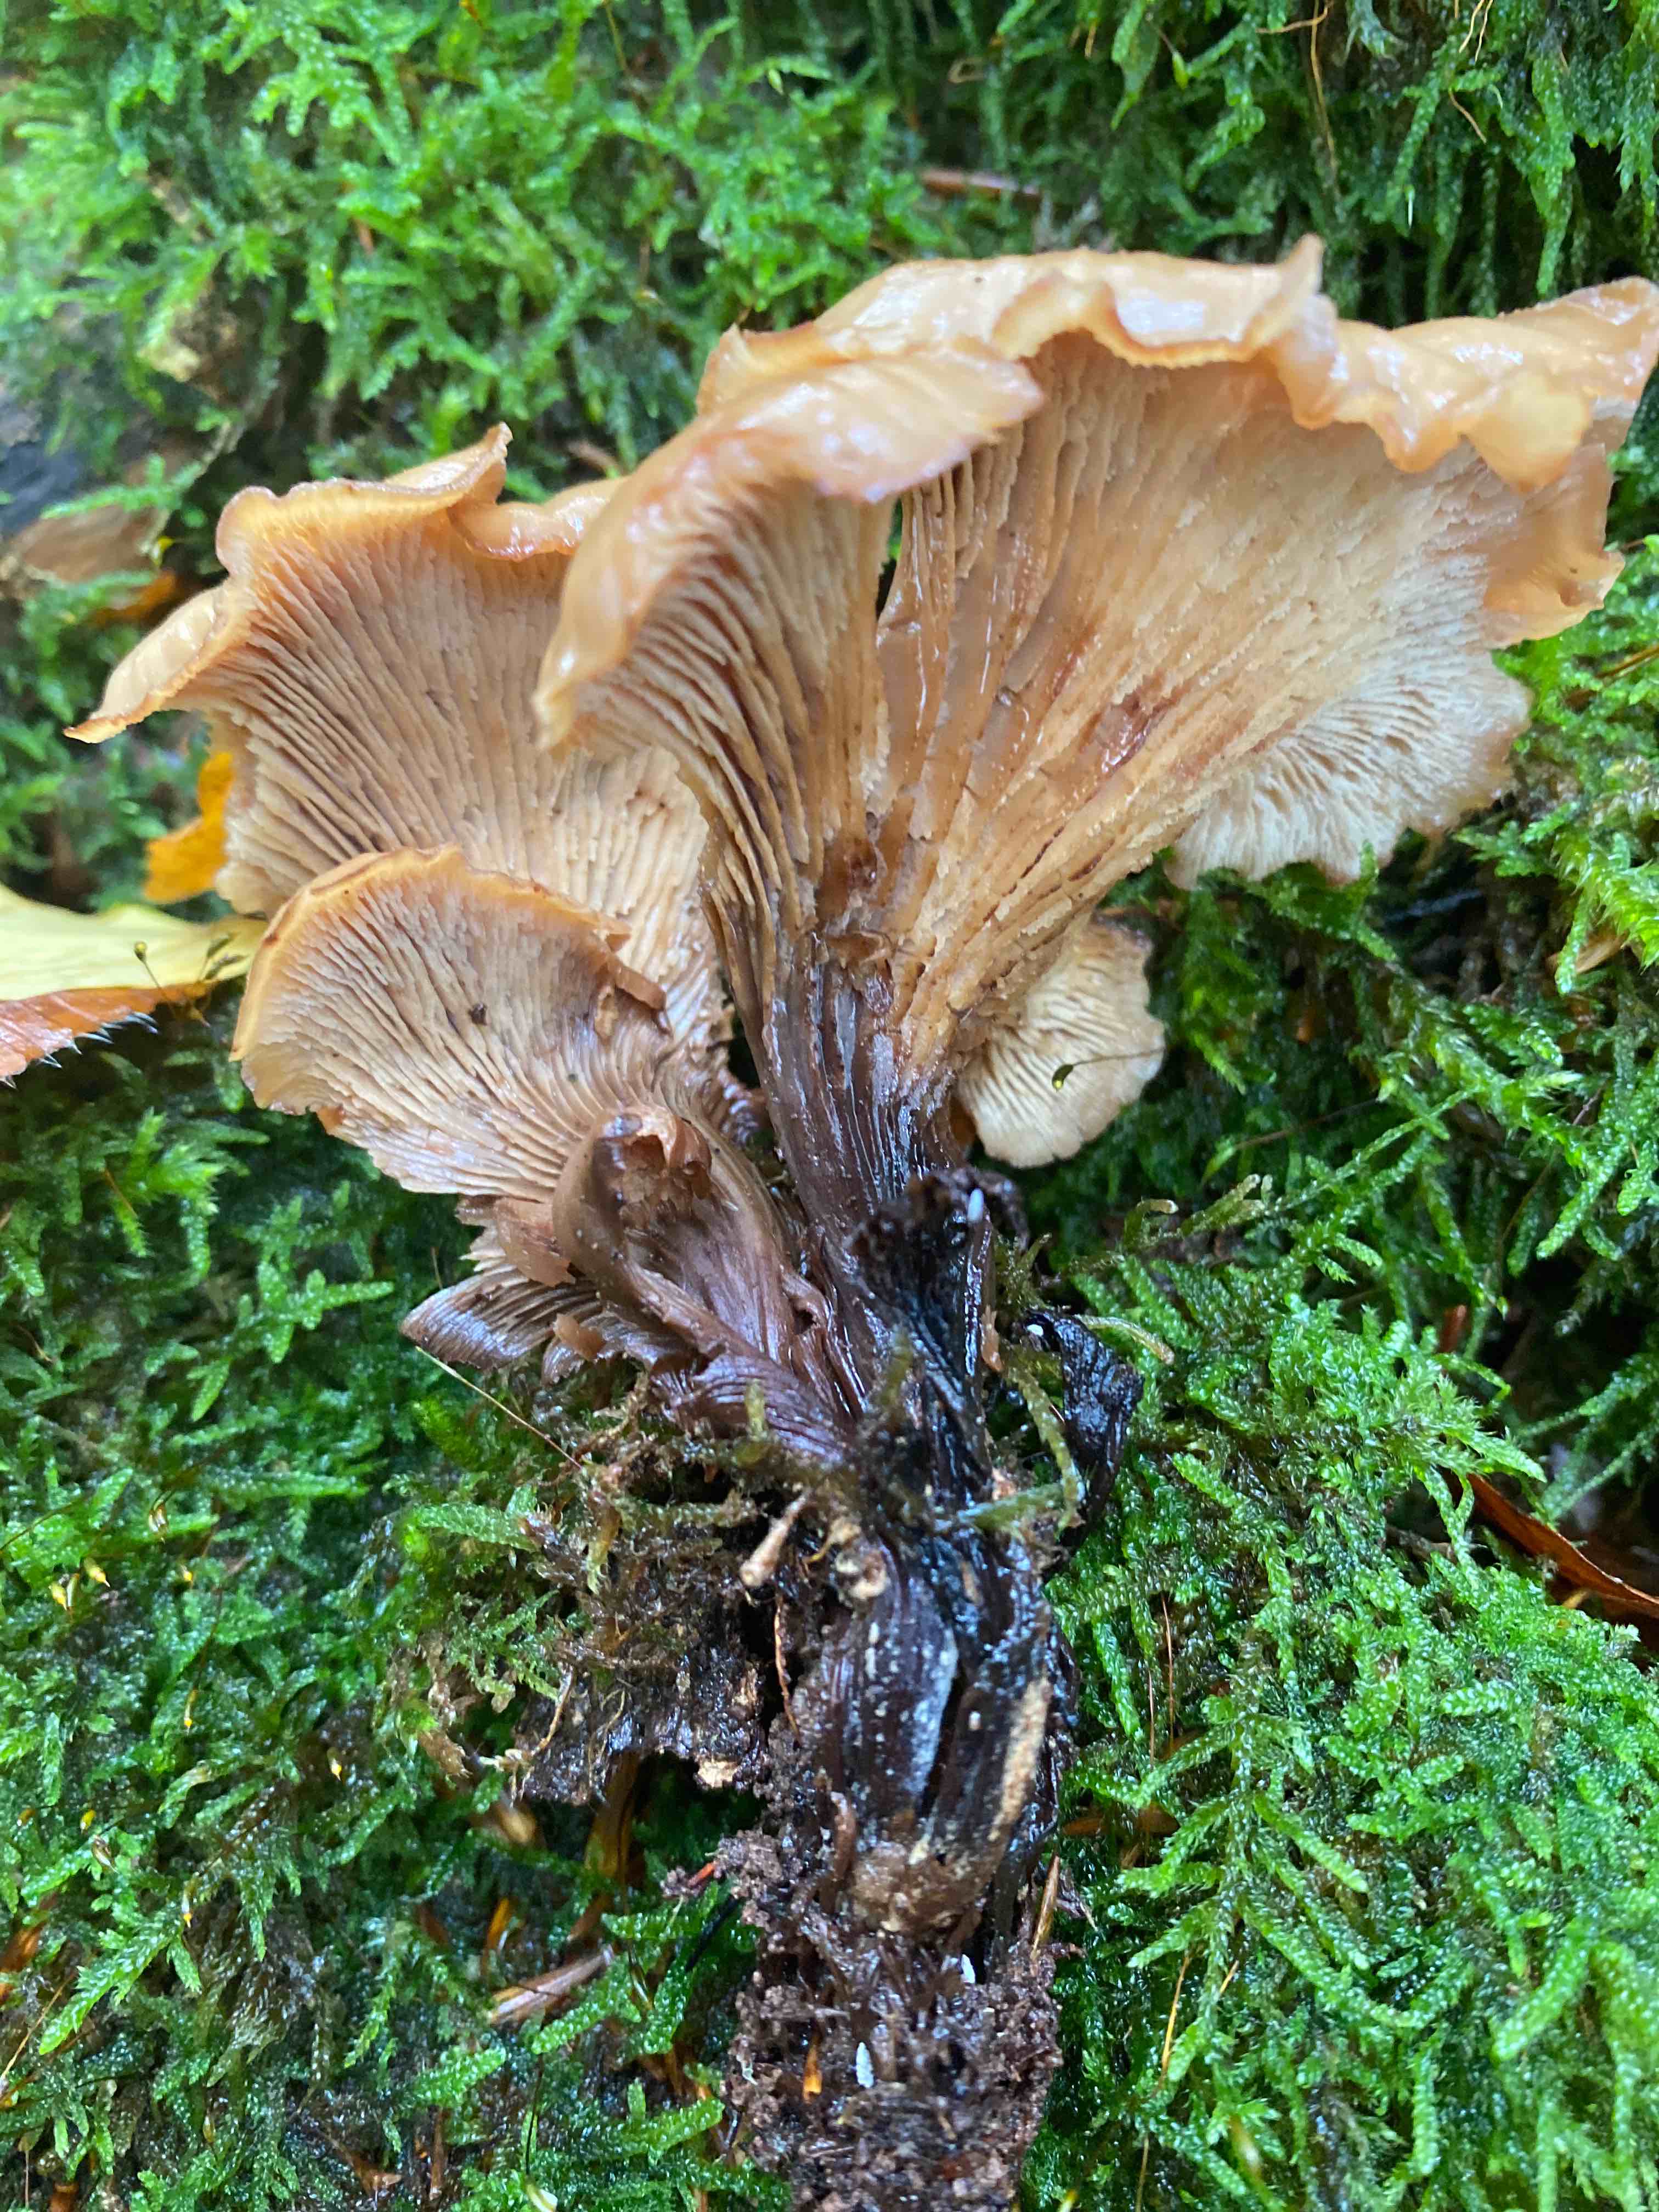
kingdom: Fungi
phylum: Basidiomycota
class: Agaricomycetes
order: Russulales
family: Auriscalpiaceae
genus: Lentinellus
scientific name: Lentinellus cochleatus
